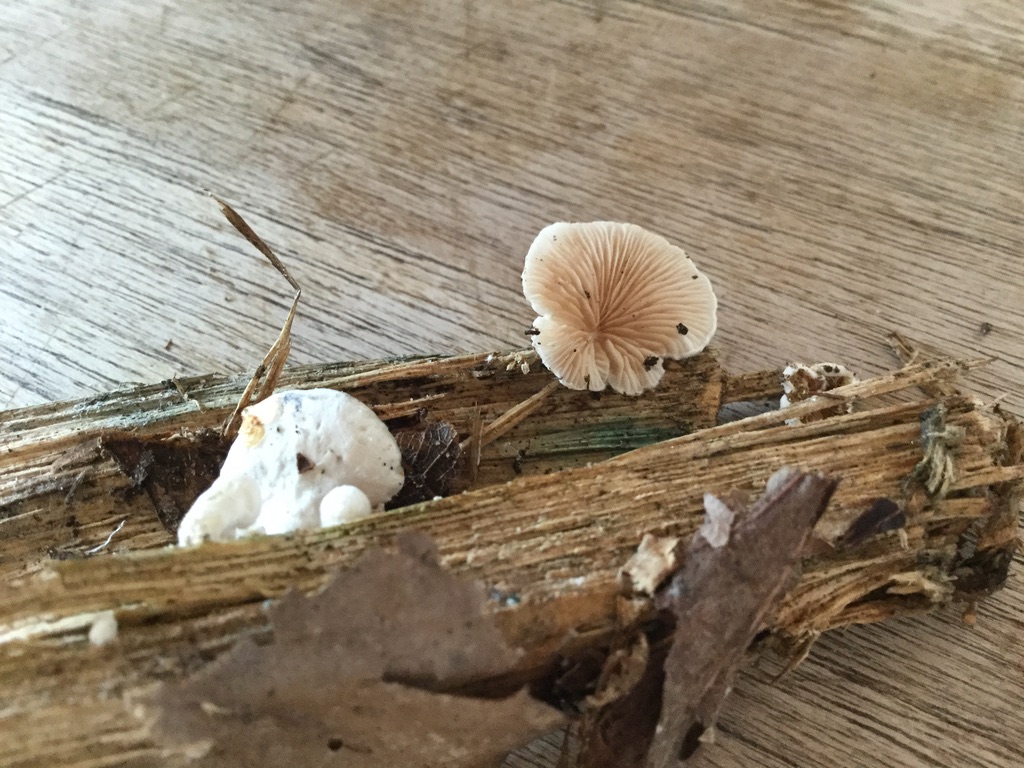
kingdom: Fungi
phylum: Basidiomycota
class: Agaricomycetes
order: Agaricales
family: Crepidotaceae
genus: Crepidotus
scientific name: Crepidotus variabilis
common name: forskelligformet muslingesvamp
